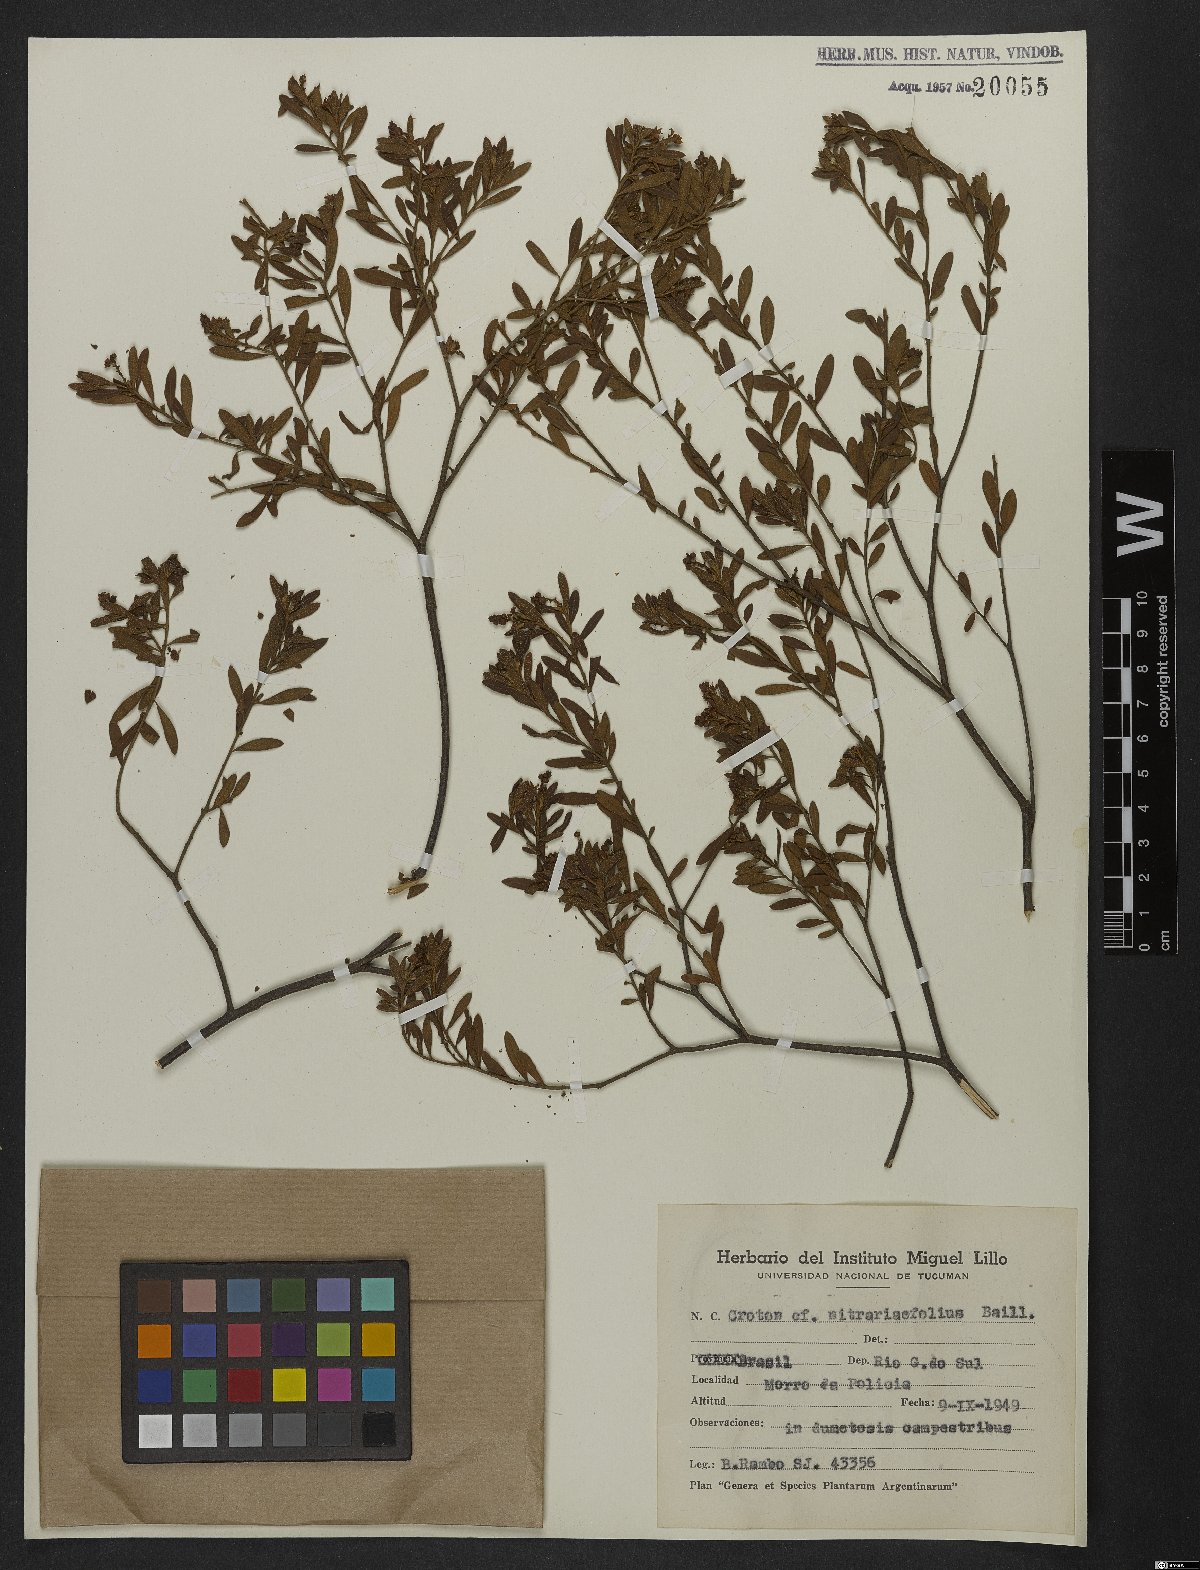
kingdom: Plantae
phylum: Tracheophyta
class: Magnoliopsida
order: Malpighiales
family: Euphorbiaceae
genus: Croton
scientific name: Croton nitrariaefolius
